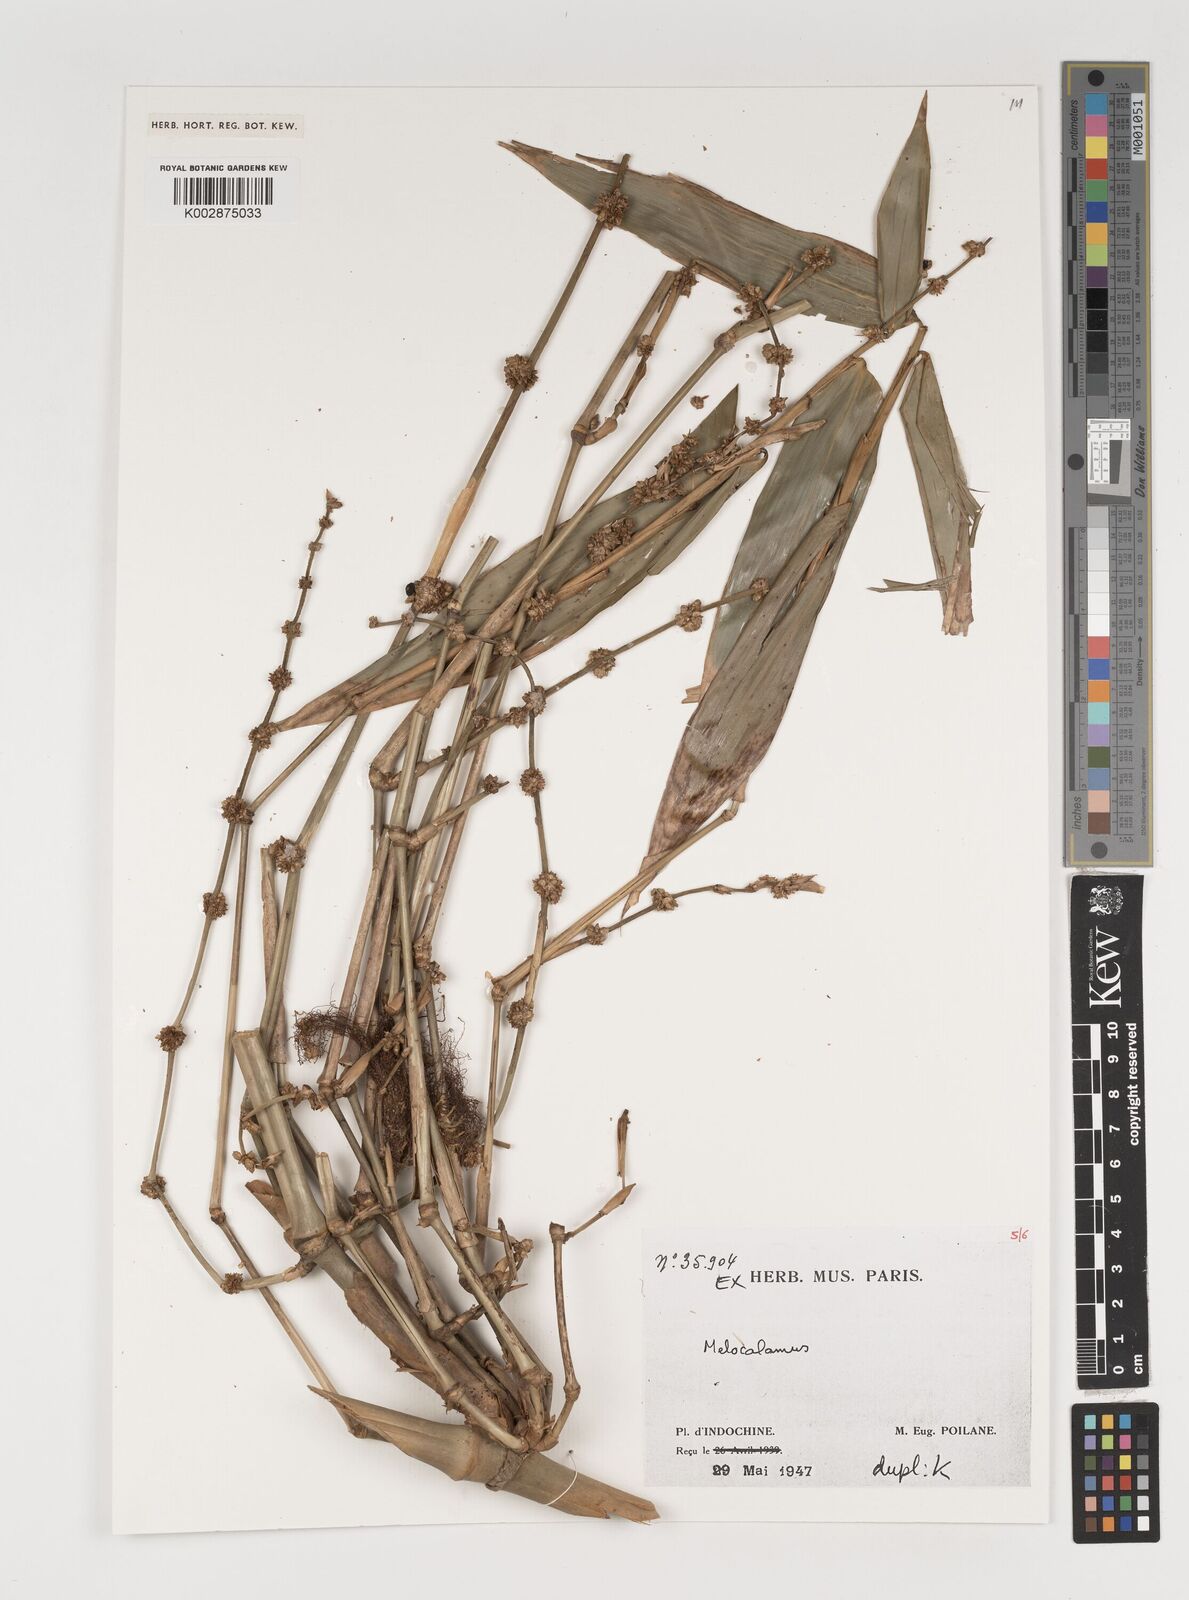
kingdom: Plantae
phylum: Tracheophyta
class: Liliopsida
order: Poales
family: Poaceae
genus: Melocalamus
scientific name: Melocalamus
